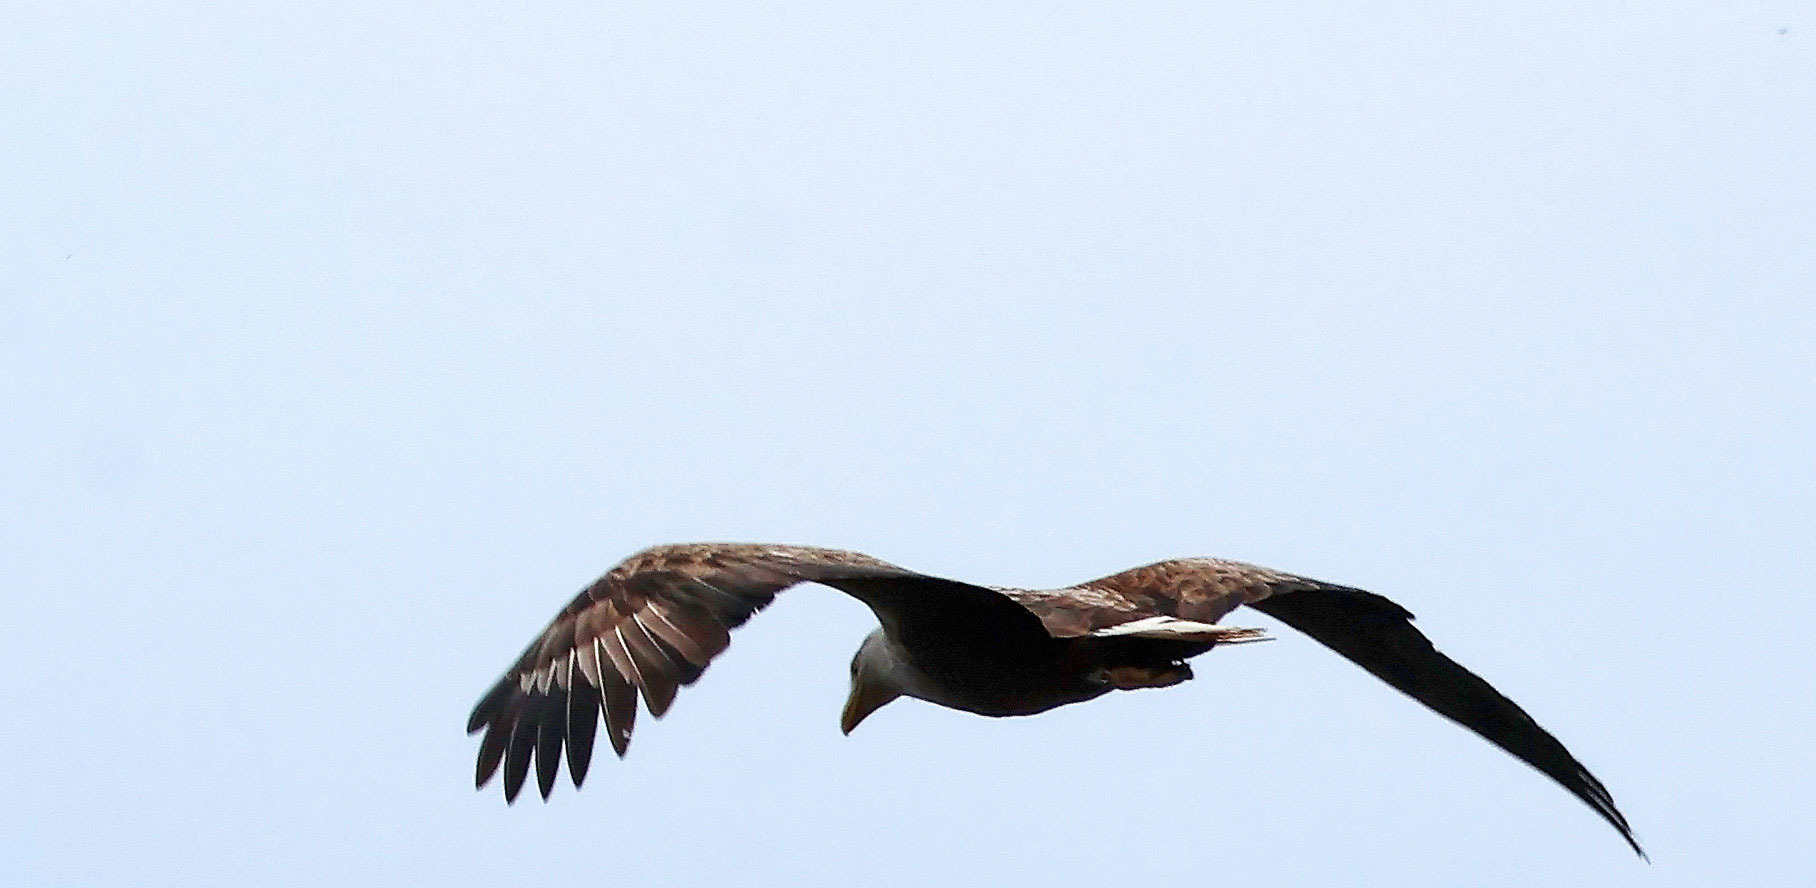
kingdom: Animalia
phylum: Chordata
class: Aves
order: Accipitriformes
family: Accipitridae
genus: Haliaeetus
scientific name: Haliaeetus albicilla
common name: Havørn
